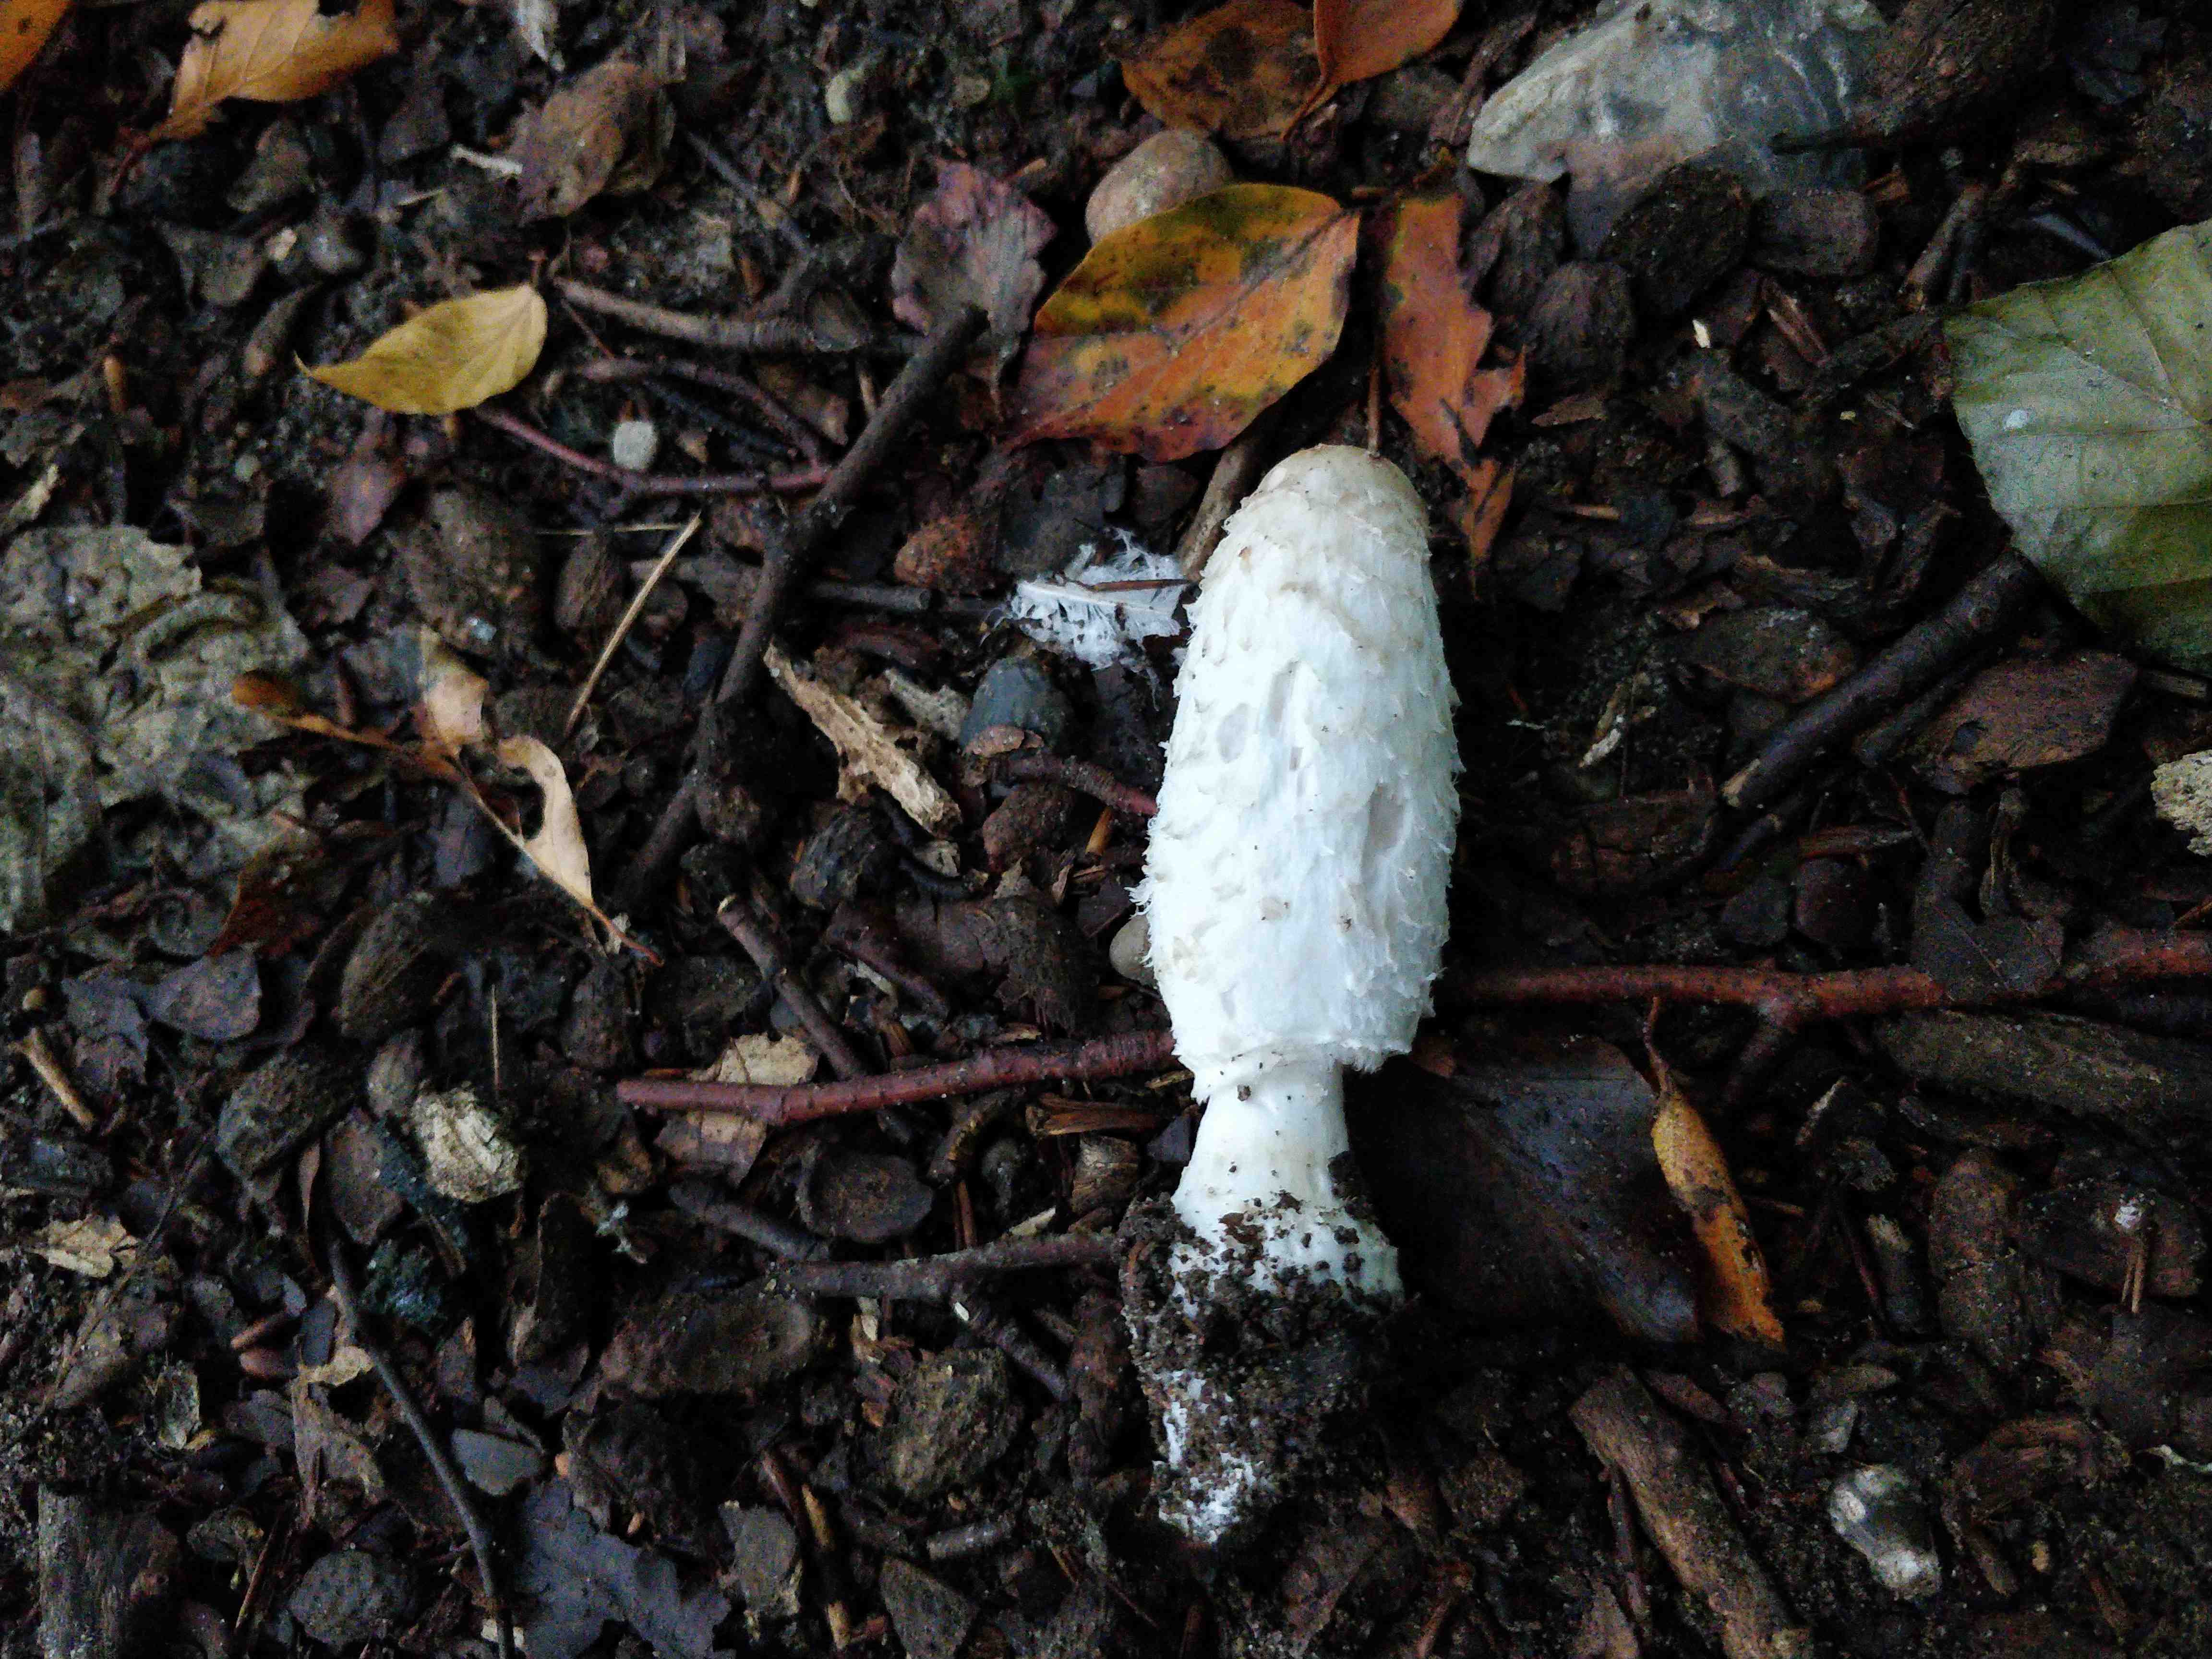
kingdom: Fungi
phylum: Basidiomycota
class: Agaricomycetes
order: Agaricales
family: Agaricaceae
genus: Coprinus
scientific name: Coprinus comatus
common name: stor parykhat
